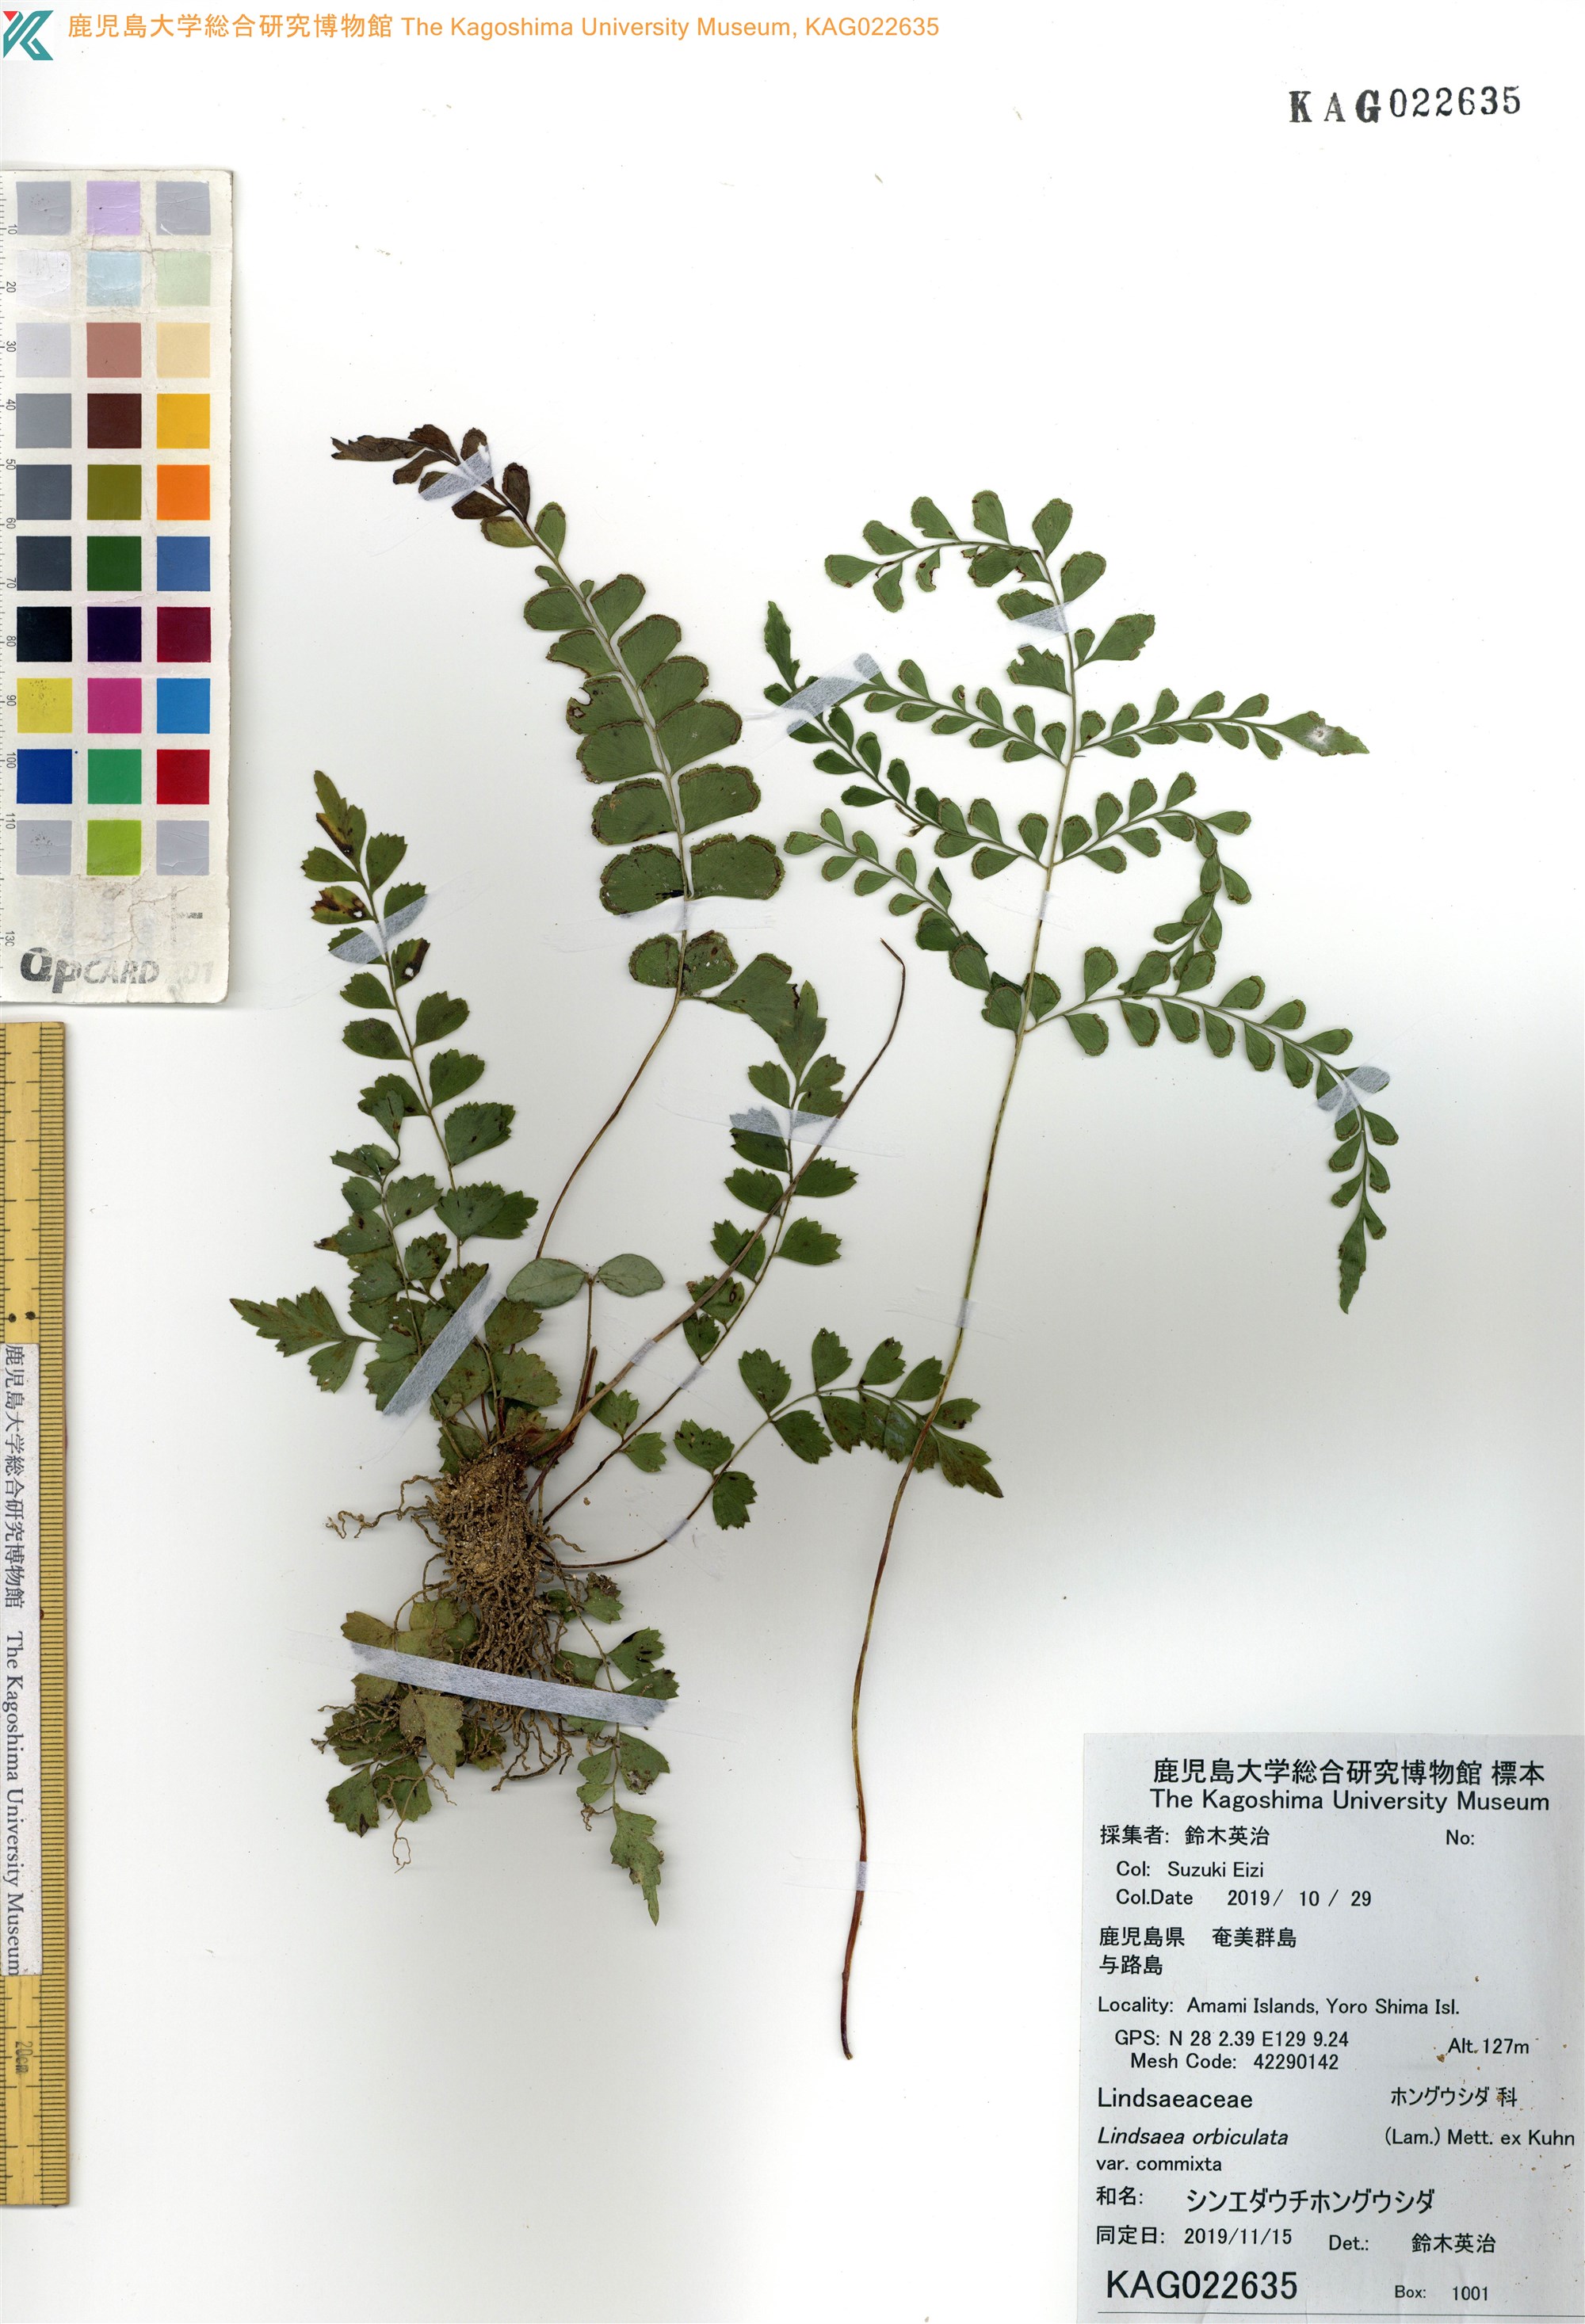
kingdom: Plantae
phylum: Tracheophyta
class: Polypodiopsida
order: Polypodiales
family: Lindsaeaceae
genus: Lindsaea
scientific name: Lindsaea bonii
